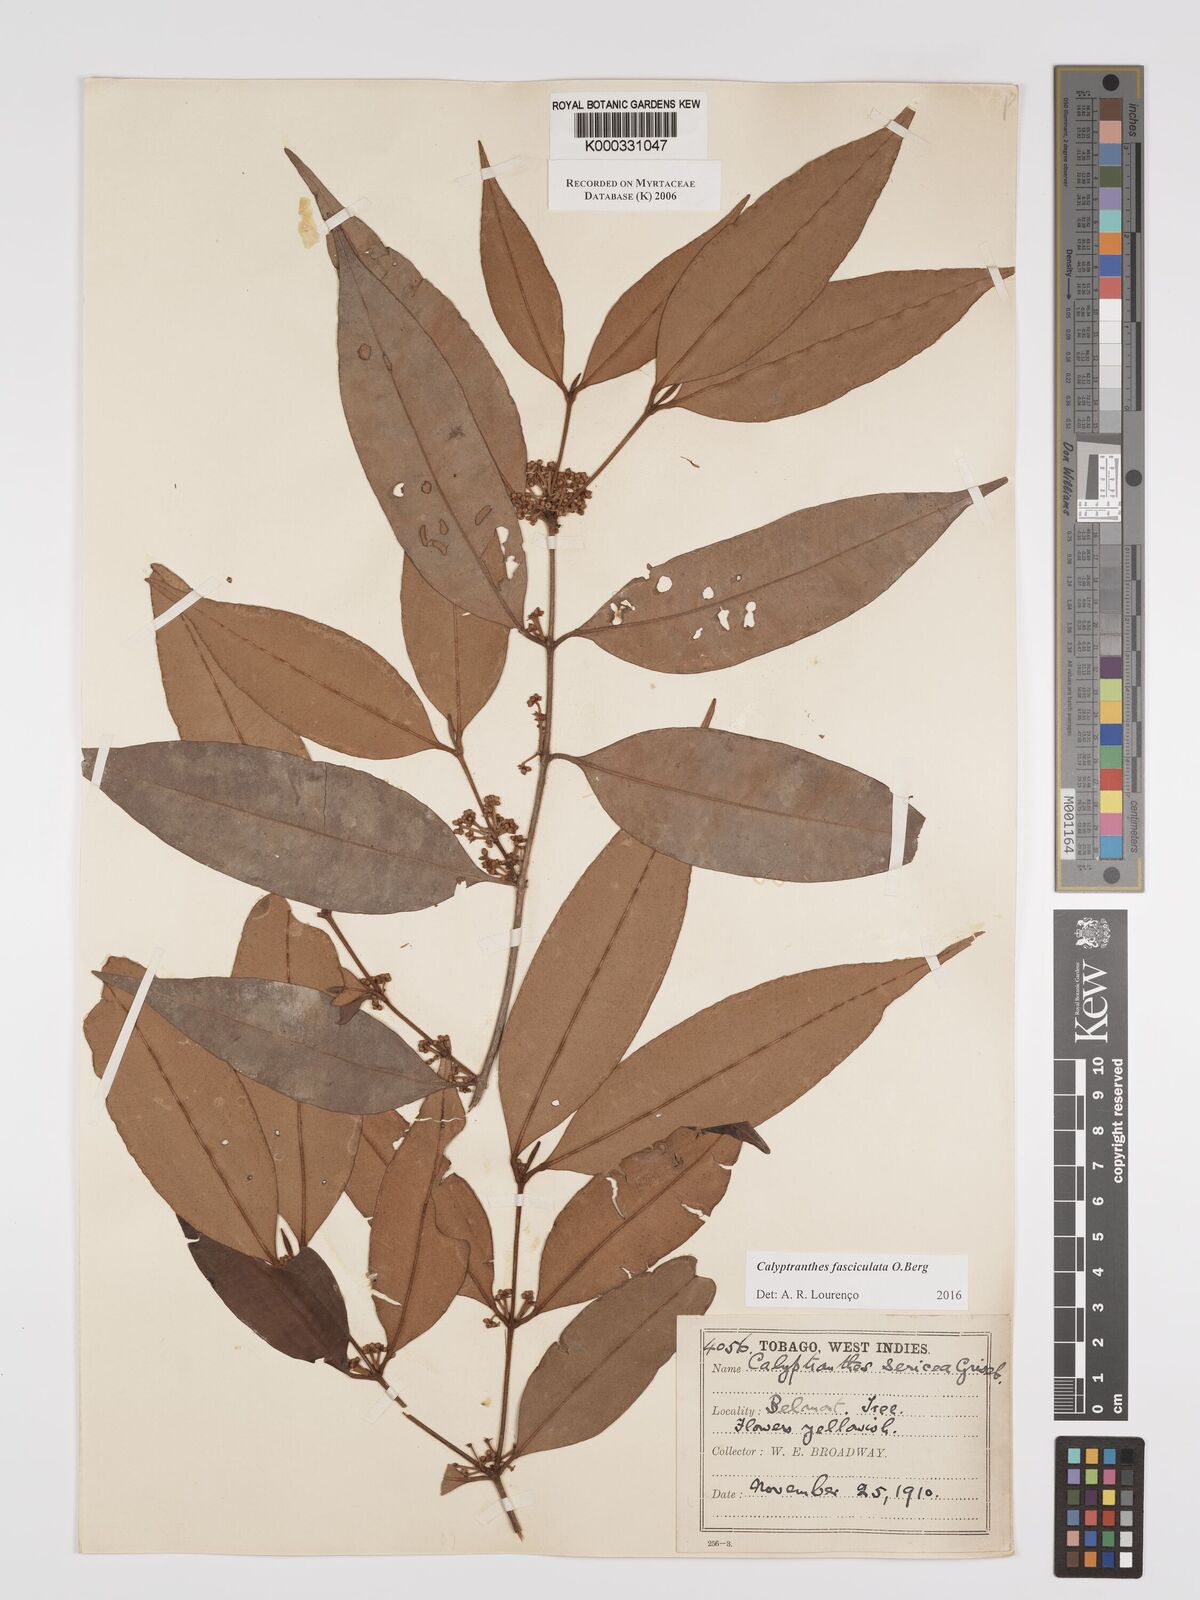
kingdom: Plantae
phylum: Tracheophyta
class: Magnoliopsida
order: Myrtales
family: Myrtaceae
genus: Myrcia
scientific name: Myrcia fasciculata
